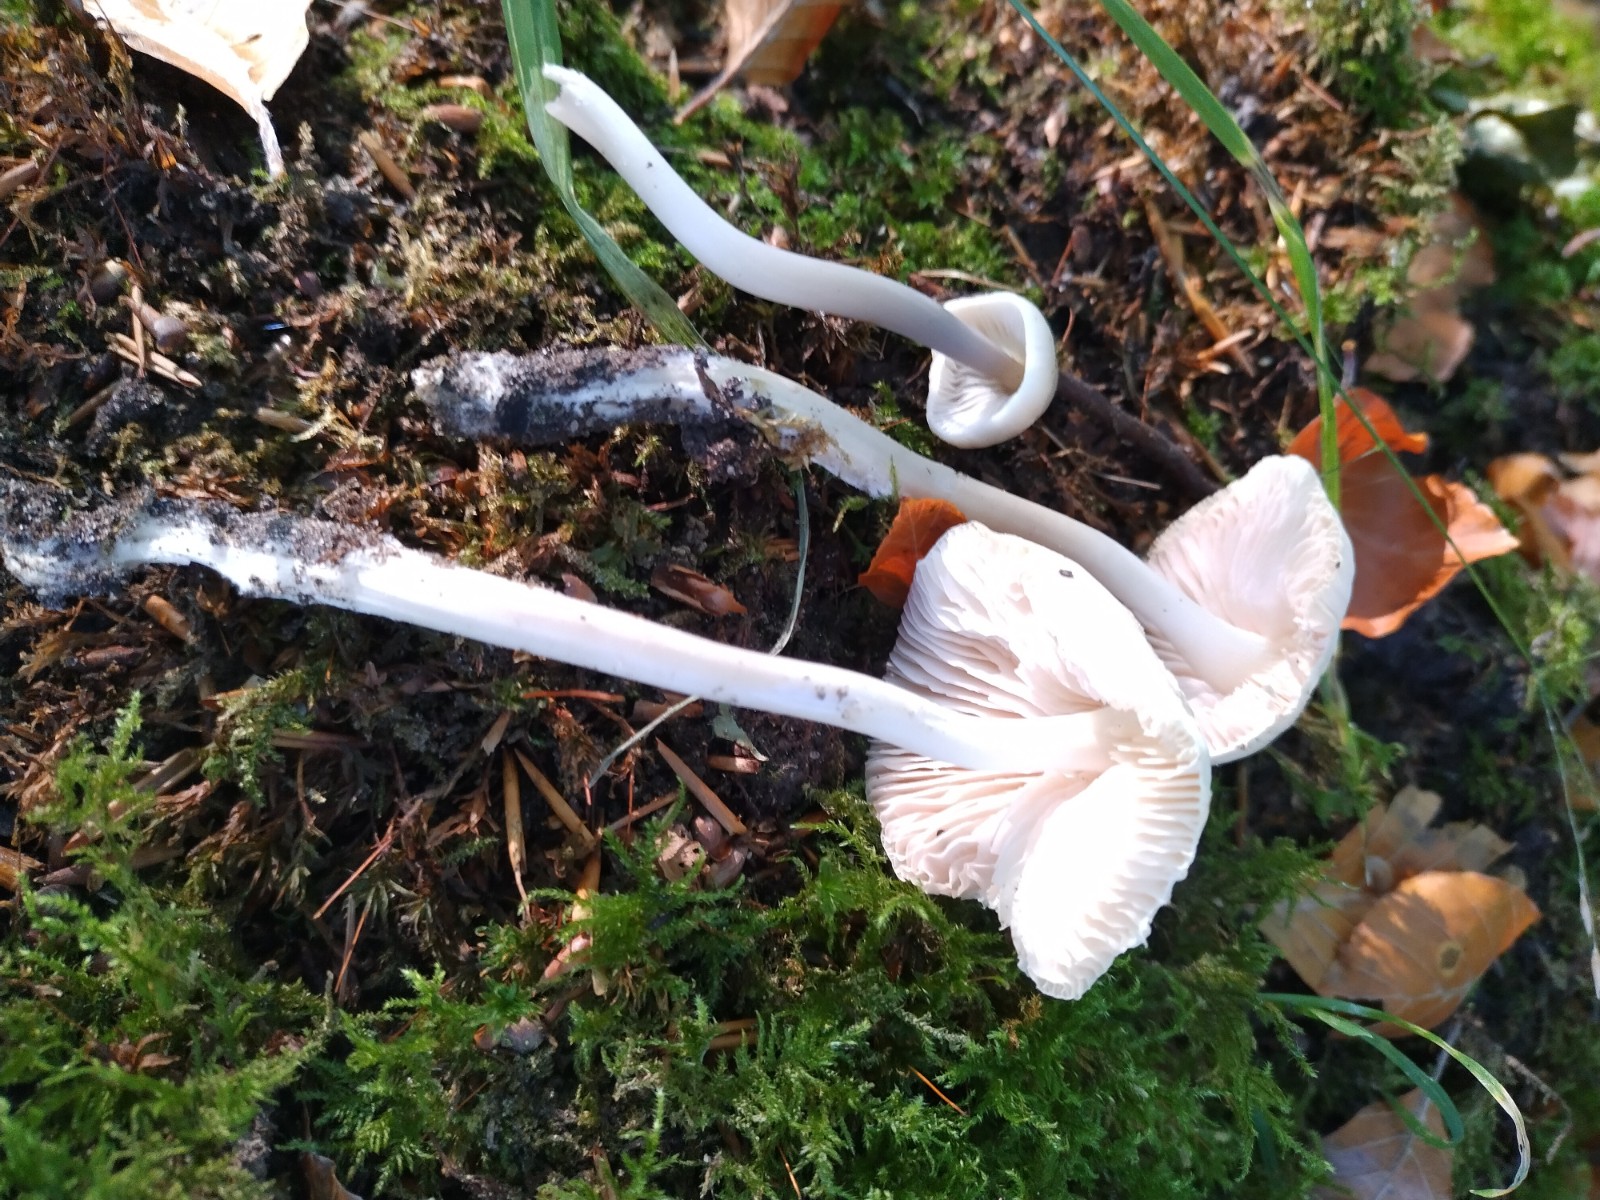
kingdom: Fungi
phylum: Basidiomycota
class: Agaricomycetes
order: Agaricales
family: Mycenaceae
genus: Mycena
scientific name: Mycena galericulata
